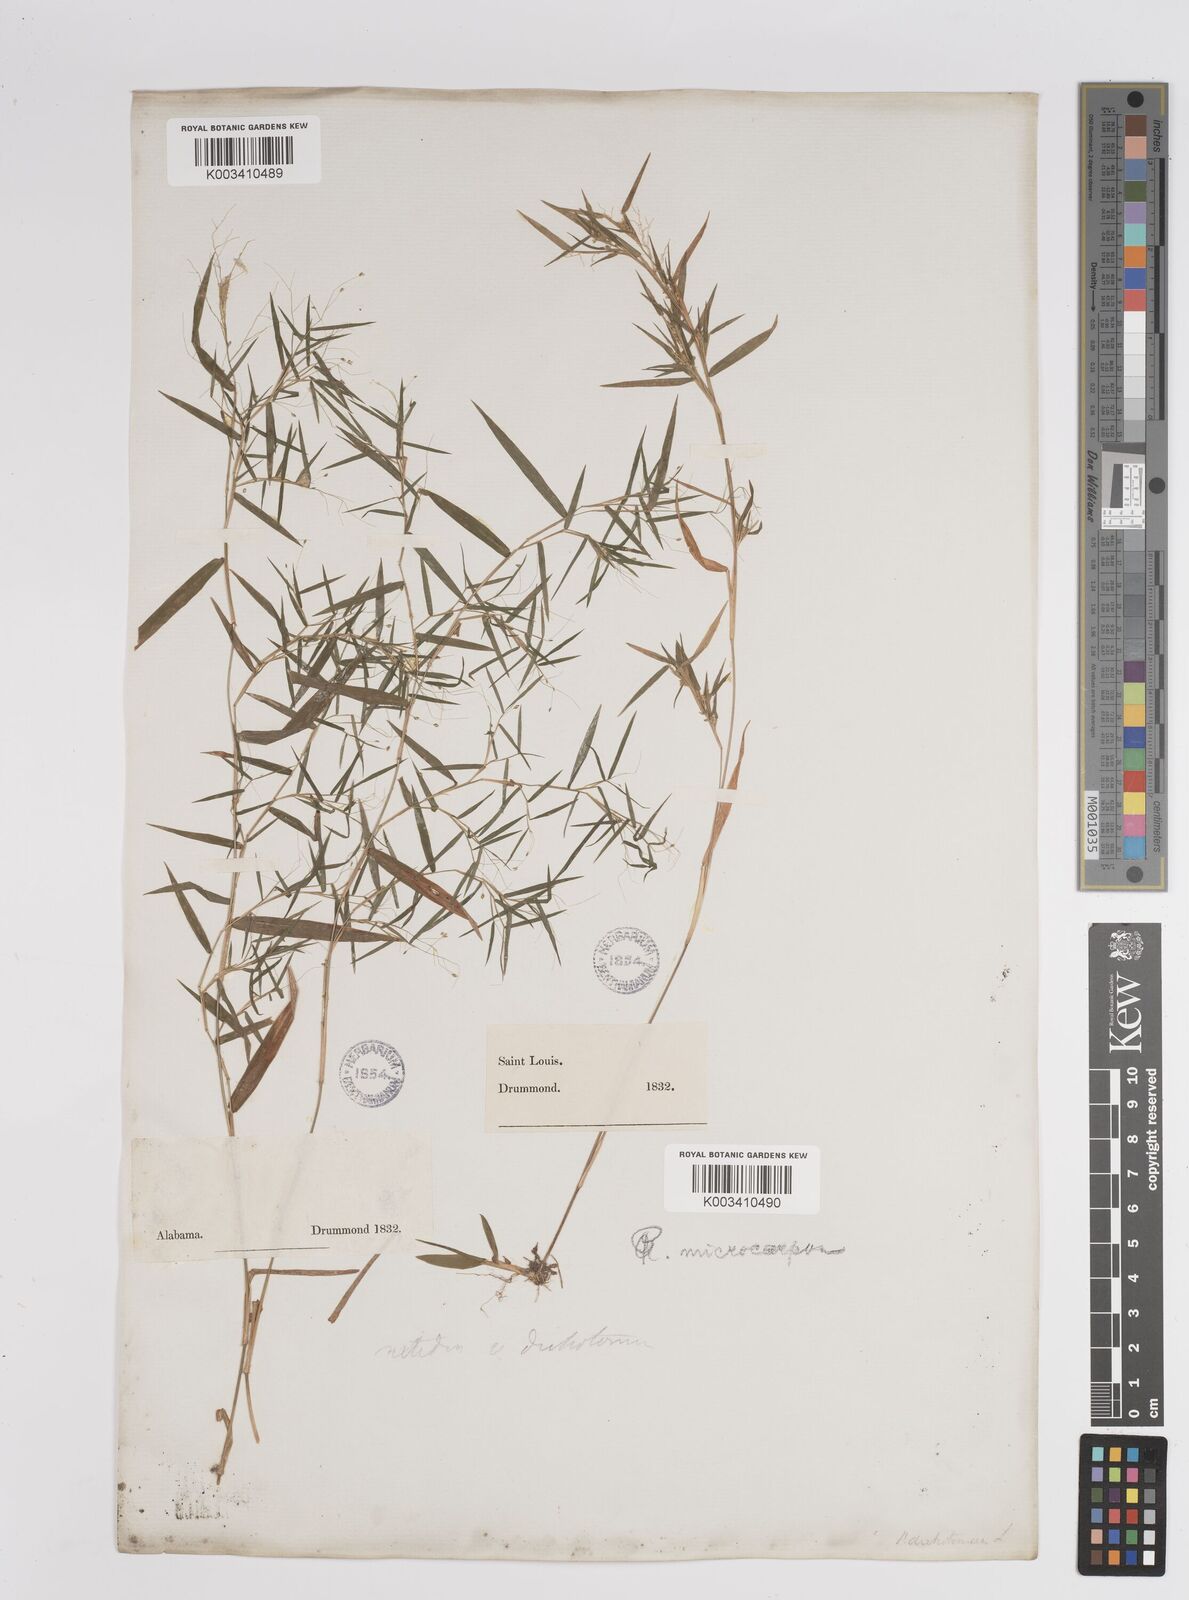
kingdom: Plantae
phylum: Tracheophyta
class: Liliopsida
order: Poales
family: Poaceae
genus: Dichanthelium
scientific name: Dichanthelium polyanthes
